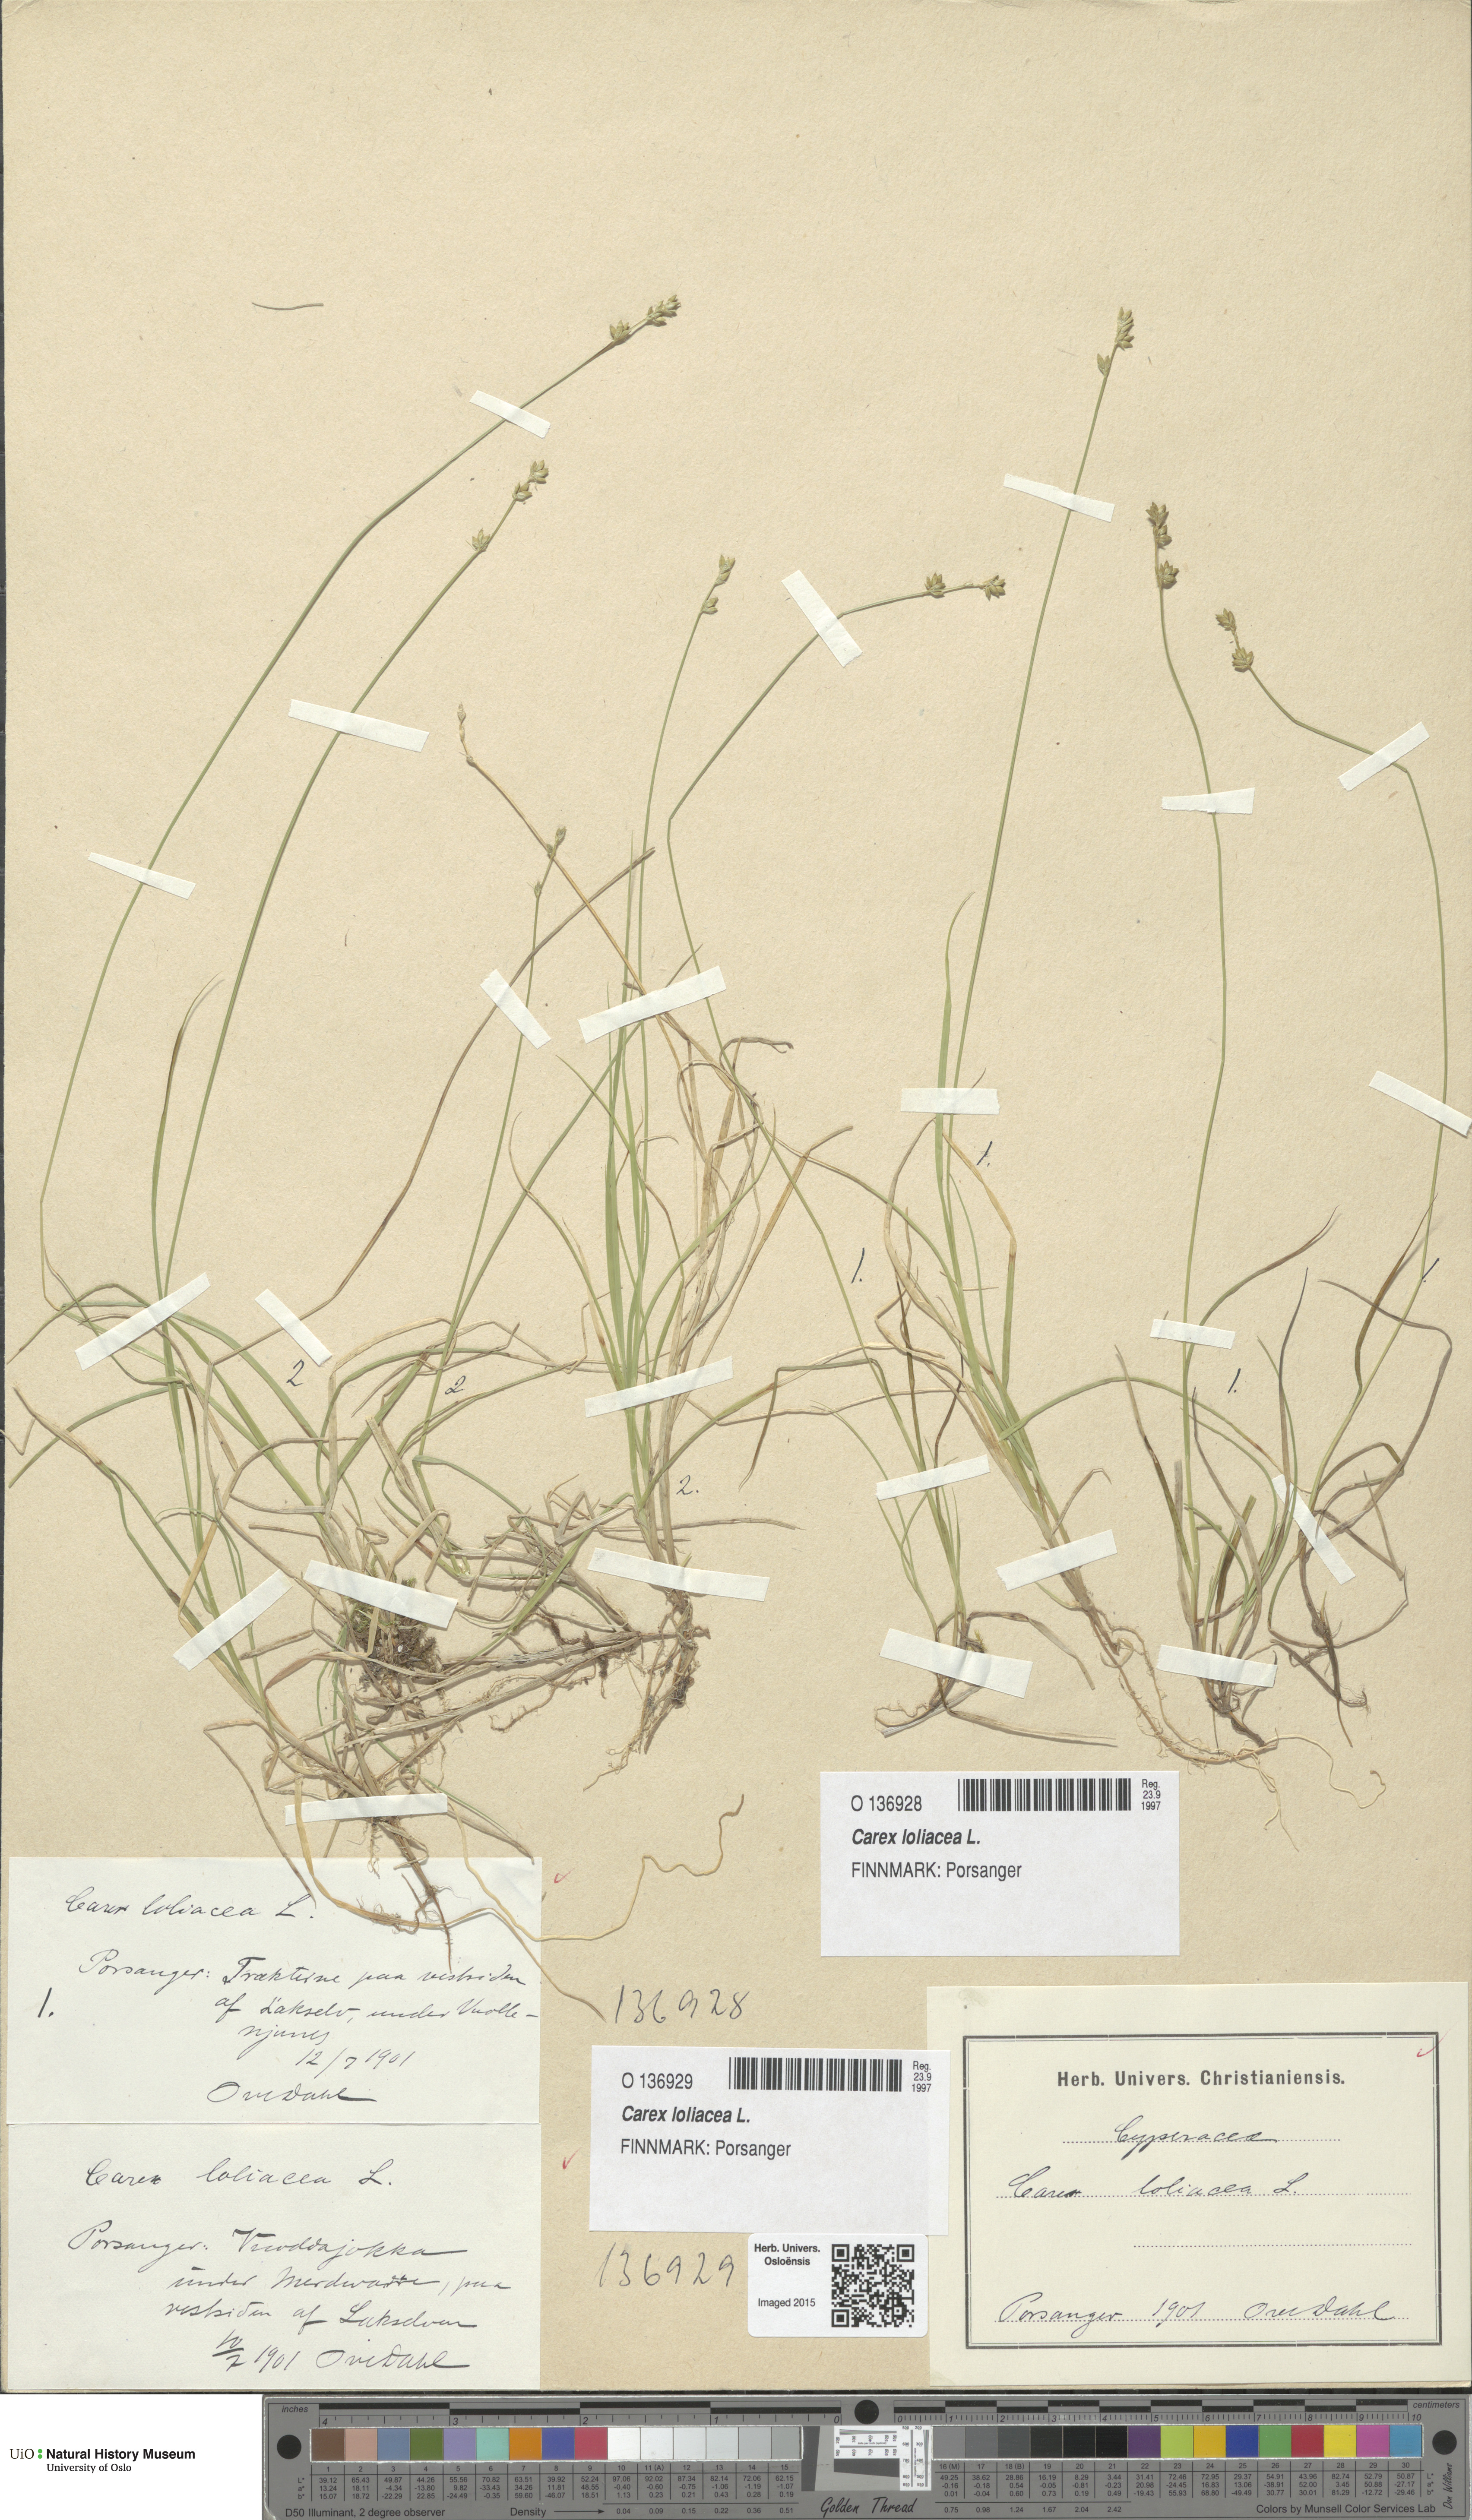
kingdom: Plantae
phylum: Tracheophyta
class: Liliopsida
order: Poales
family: Cyperaceae
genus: Carex
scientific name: Carex loliacea
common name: Ryegrass sedge
